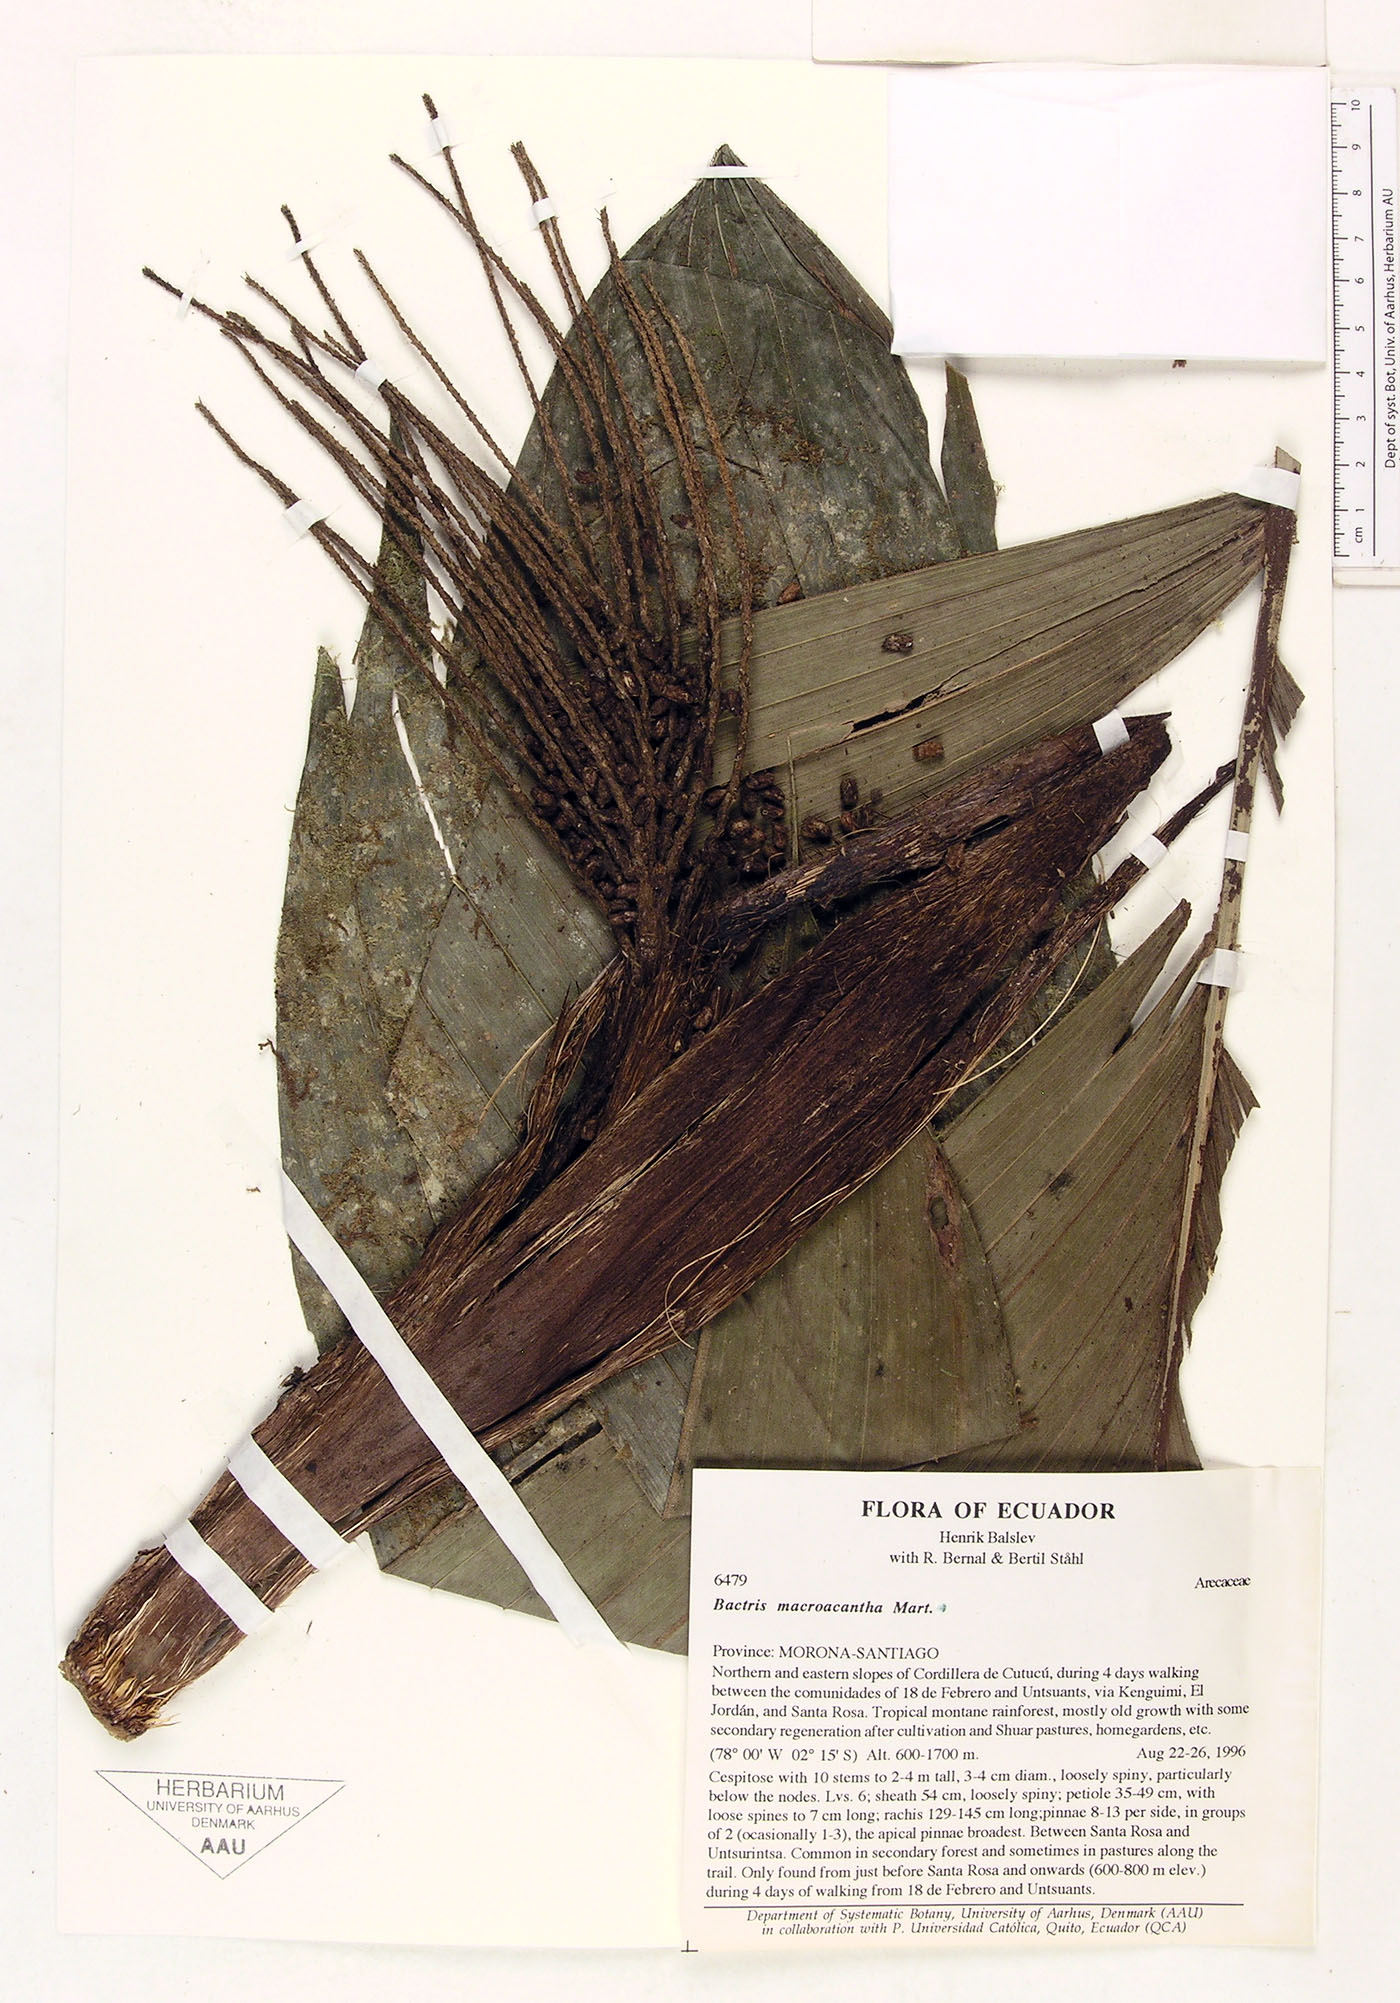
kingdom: Plantae
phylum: Tracheophyta
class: Liliopsida
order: Arecales
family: Arecaceae
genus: Bactris
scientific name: Bactris macroacantha
